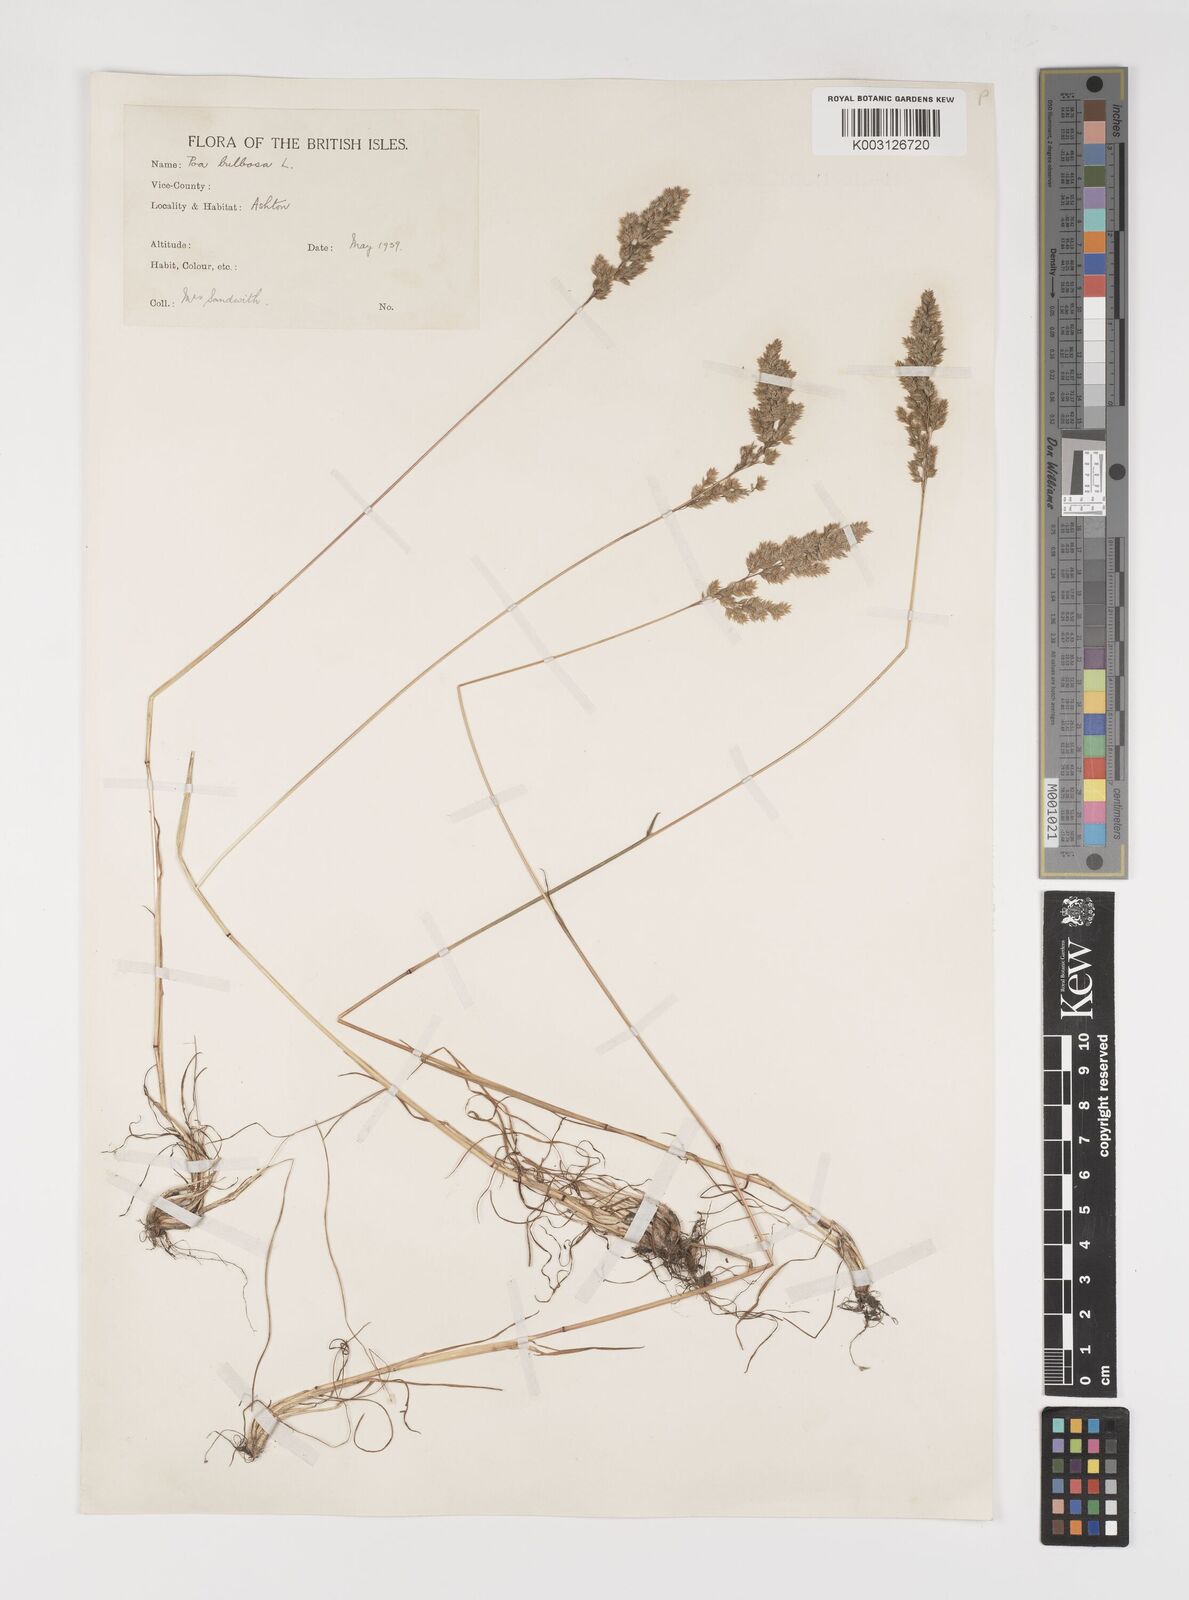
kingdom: Plantae
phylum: Tracheophyta
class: Liliopsida
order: Poales
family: Poaceae
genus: Poa
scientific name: Poa bulbosa
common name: Bulbous bluegrass
